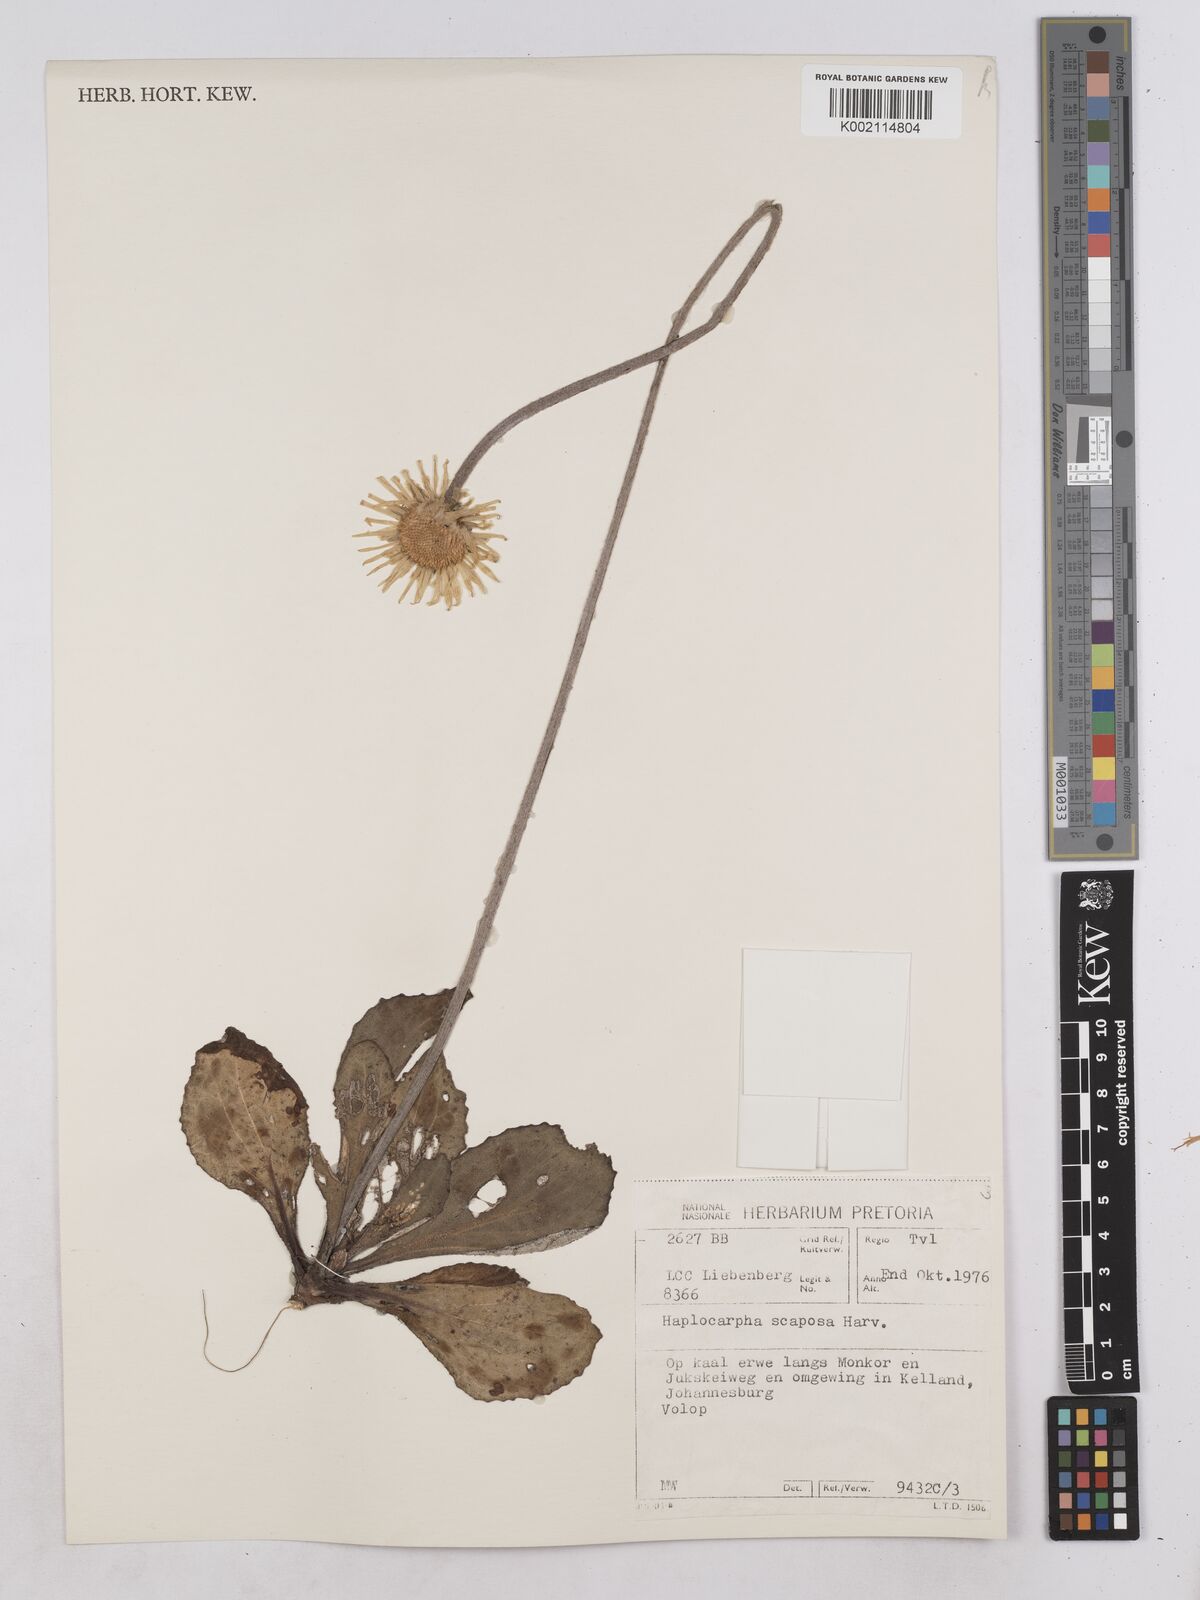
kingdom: Plantae
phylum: Tracheophyta
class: Magnoliopsida
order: Asterales
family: Asteraceae
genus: Haplocarpha
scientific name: Haplocarpha scaposa
